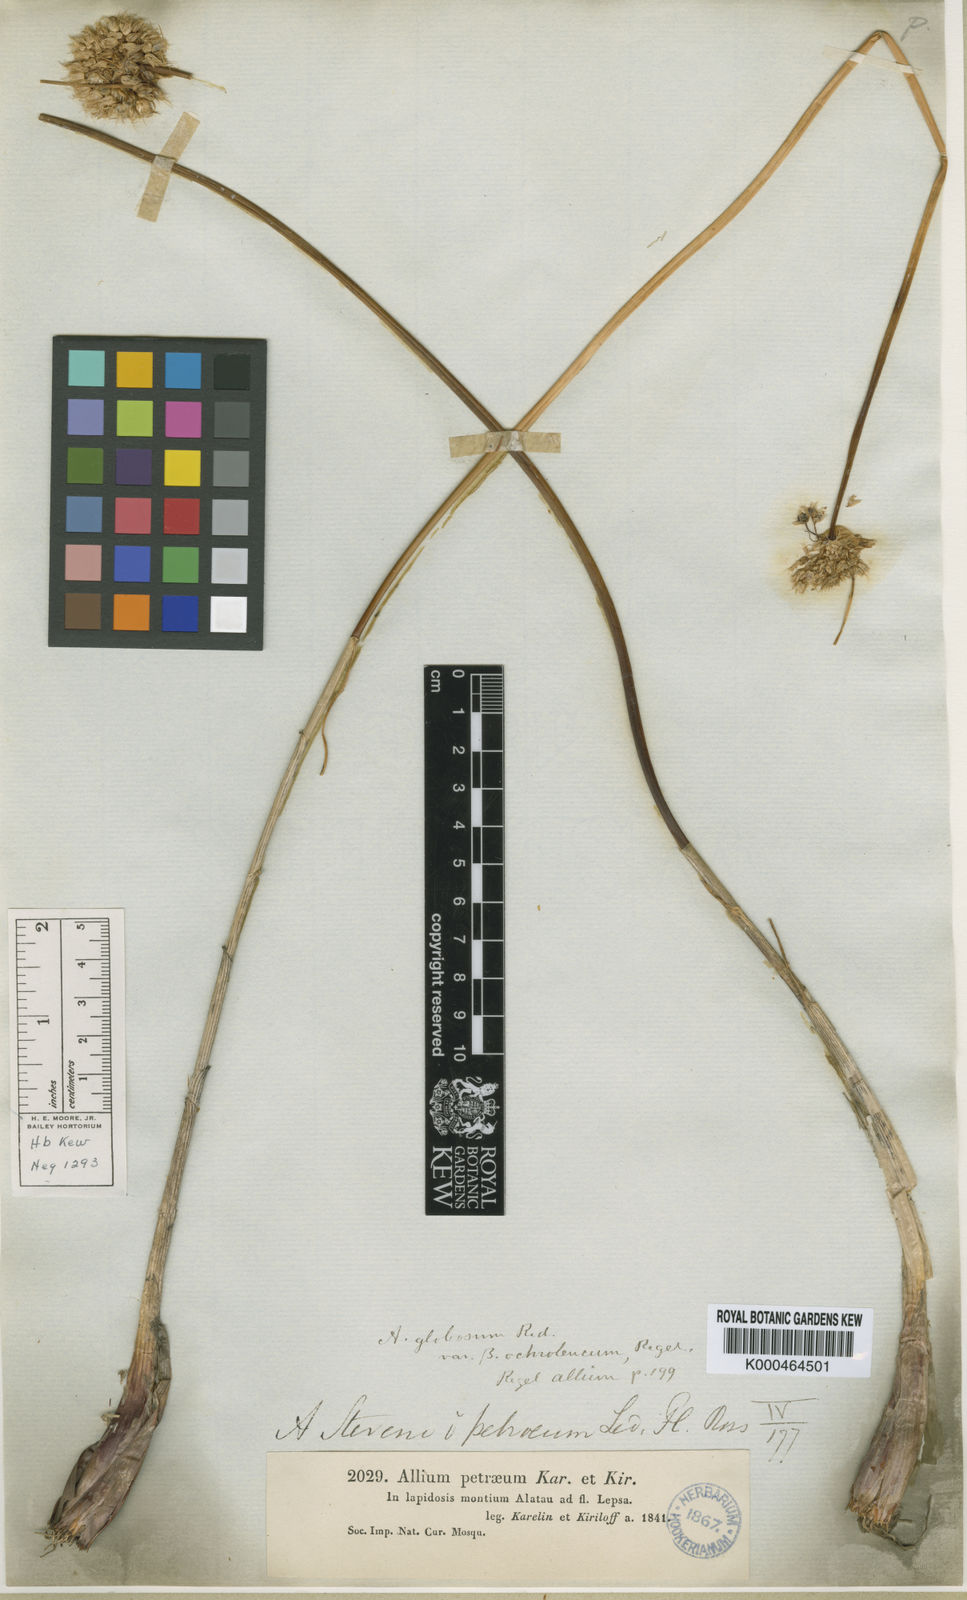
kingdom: Plantae
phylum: Tracheophyta
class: Liliopsida
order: Asparagales
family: Amaryllidaceae
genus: Allium
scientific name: Allium petraeum
